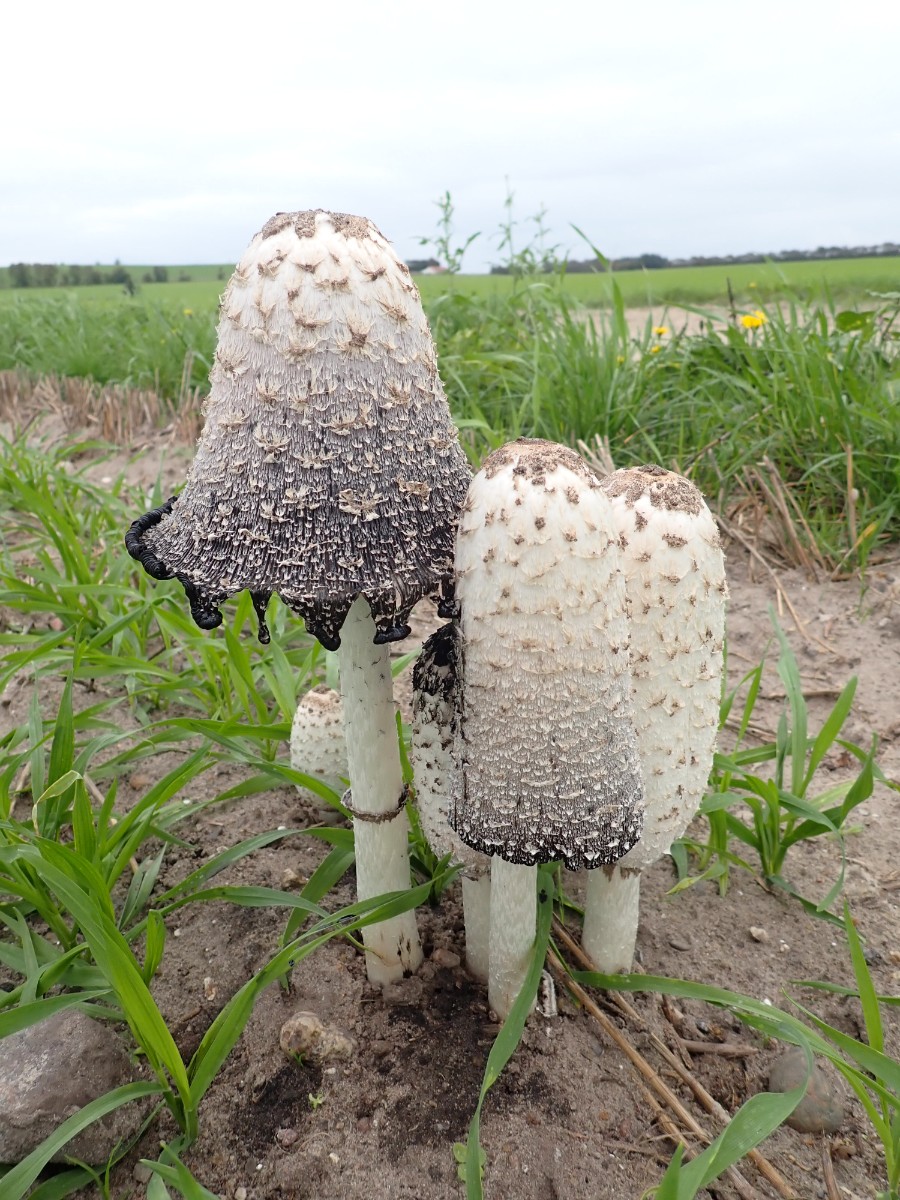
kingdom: Fungi
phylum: Basidiomycota
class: Agaricomycetes
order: Agaricales
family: Agaricaceae
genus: Coprinus
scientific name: Coprinus comatus
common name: stor parykhat
